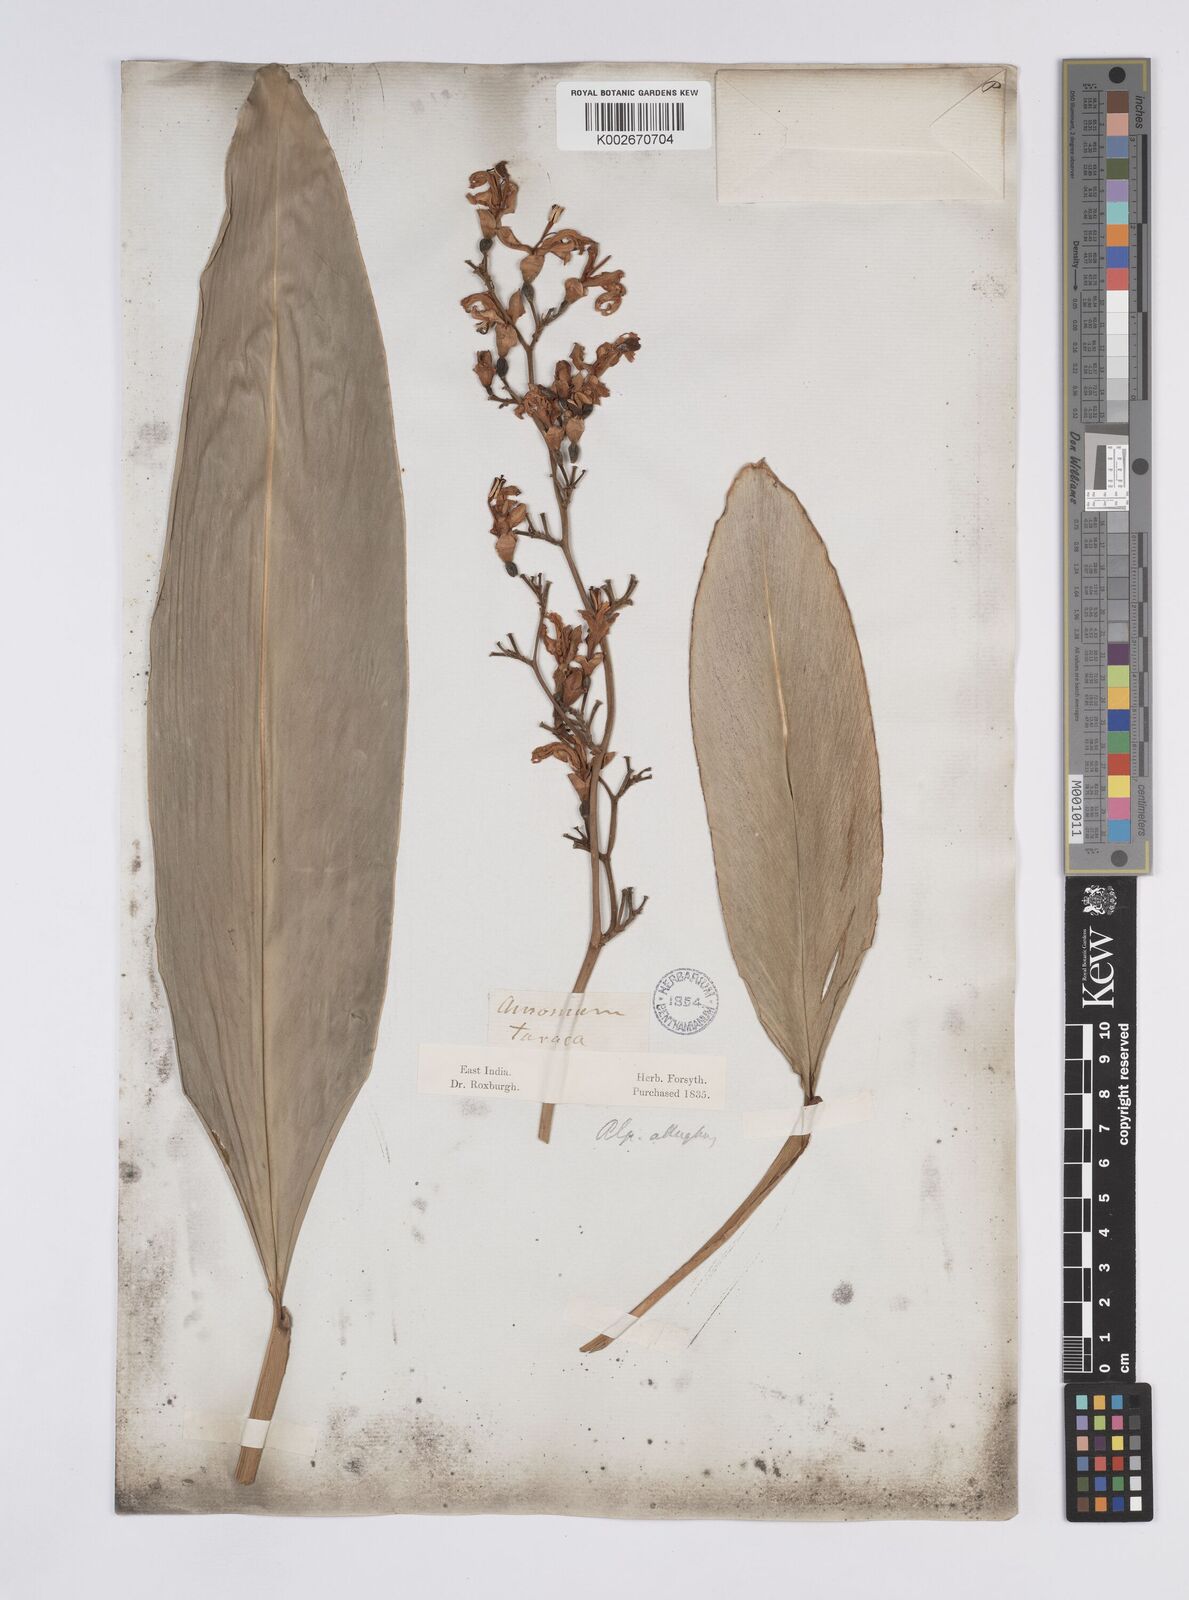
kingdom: Plantae
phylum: Tracheophyta
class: Liliopsida
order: Zingiberales
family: Zingiberaceae
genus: Alpinia
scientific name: Alpinia nigra
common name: Black fruited galanga
